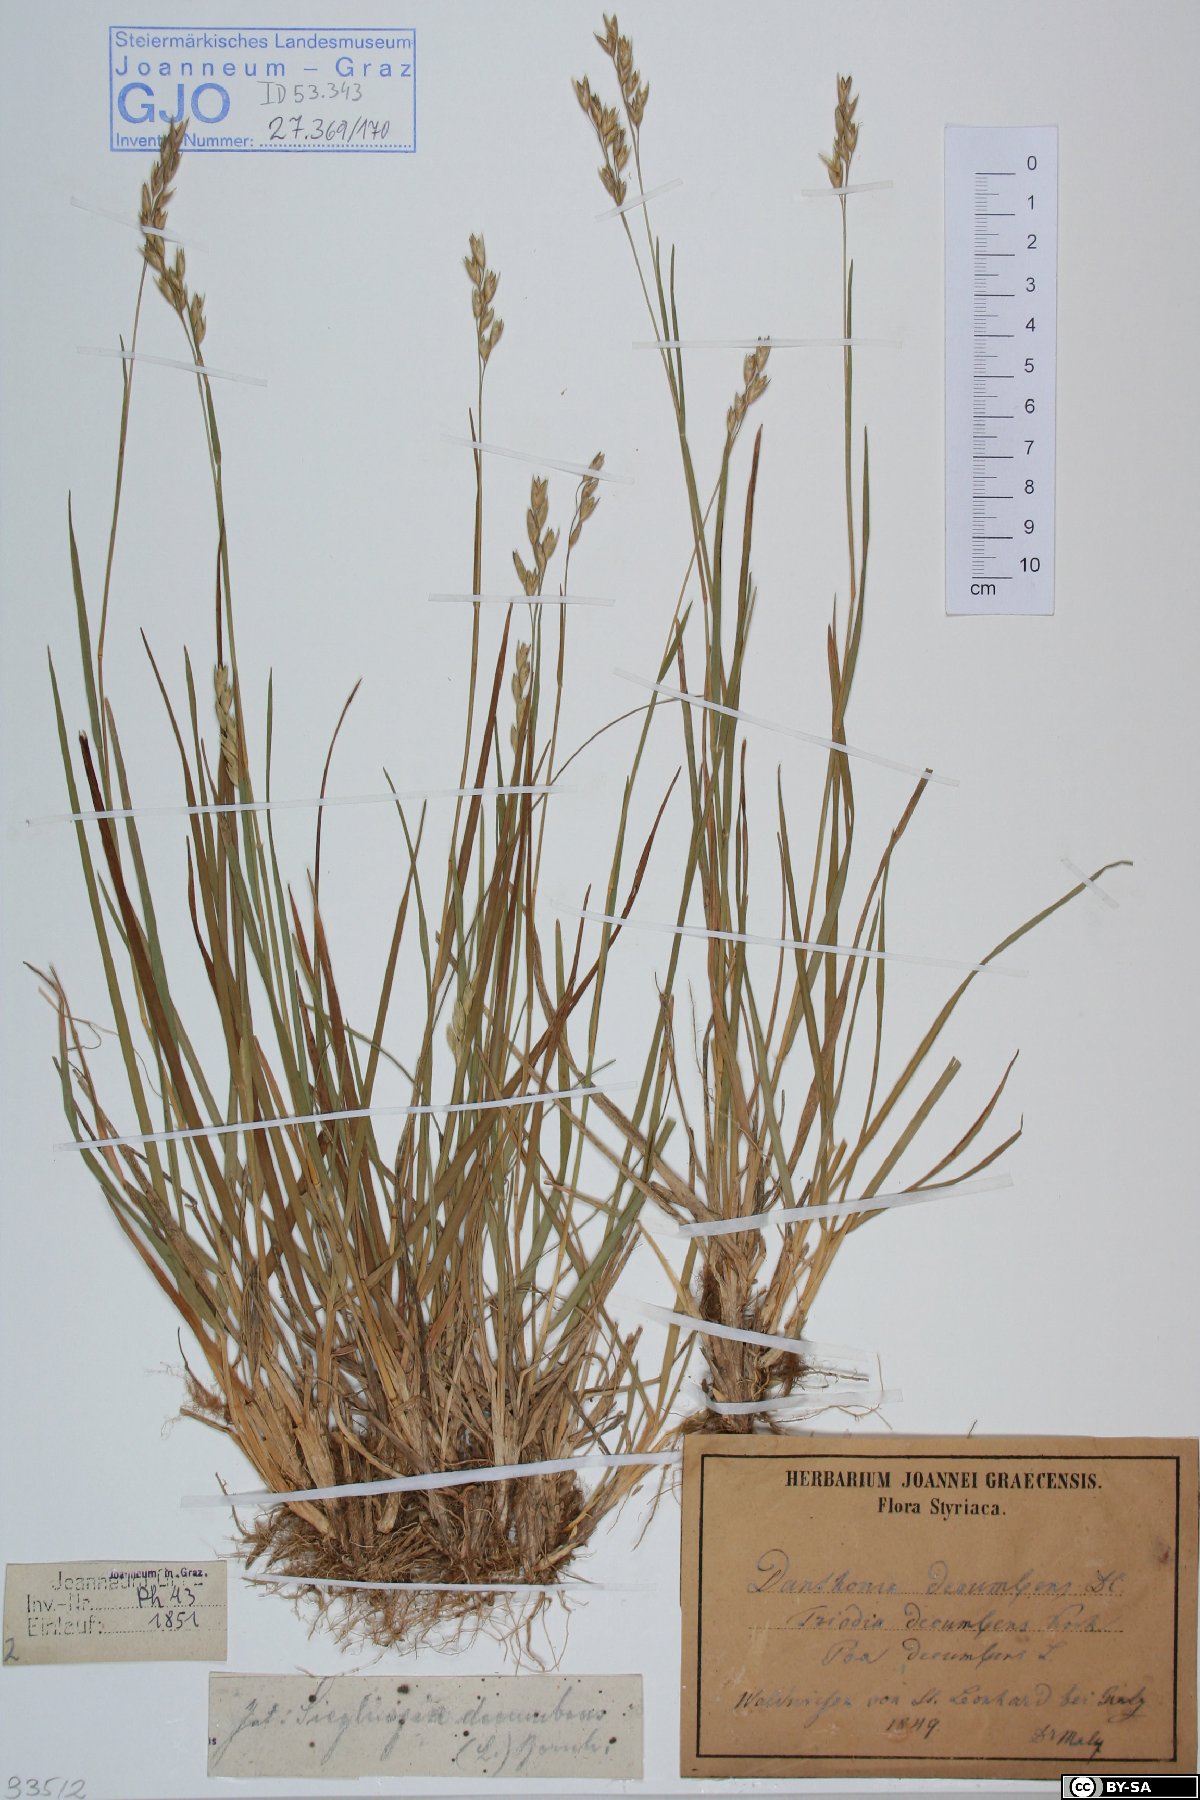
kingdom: Plantae
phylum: Tracheophyta
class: Liliopsida
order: Poales
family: Poaceae
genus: Danthonia
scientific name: Danthonia decumbens
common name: Common heathgrass
